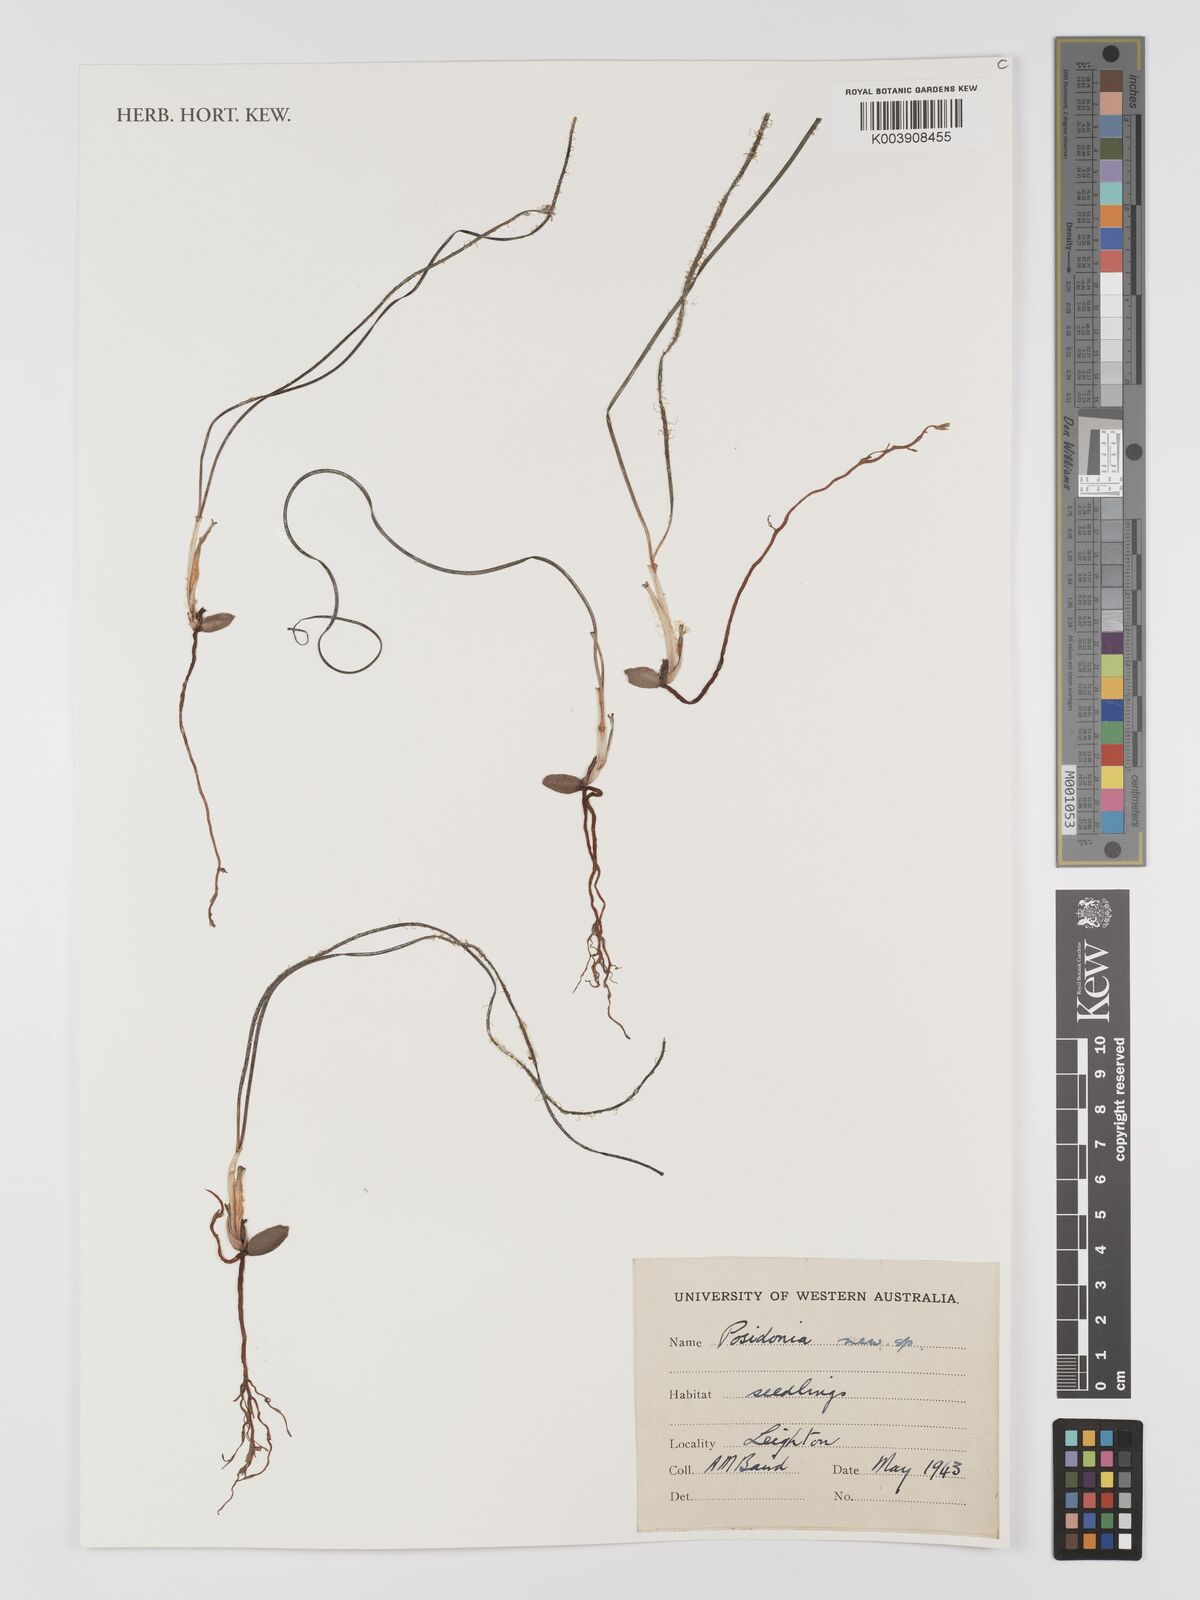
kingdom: Plantae
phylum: Tracheophyta
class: Liliopsida
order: Alismatales
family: Posidoniaceae
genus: Posidonia
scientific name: Posidonia
